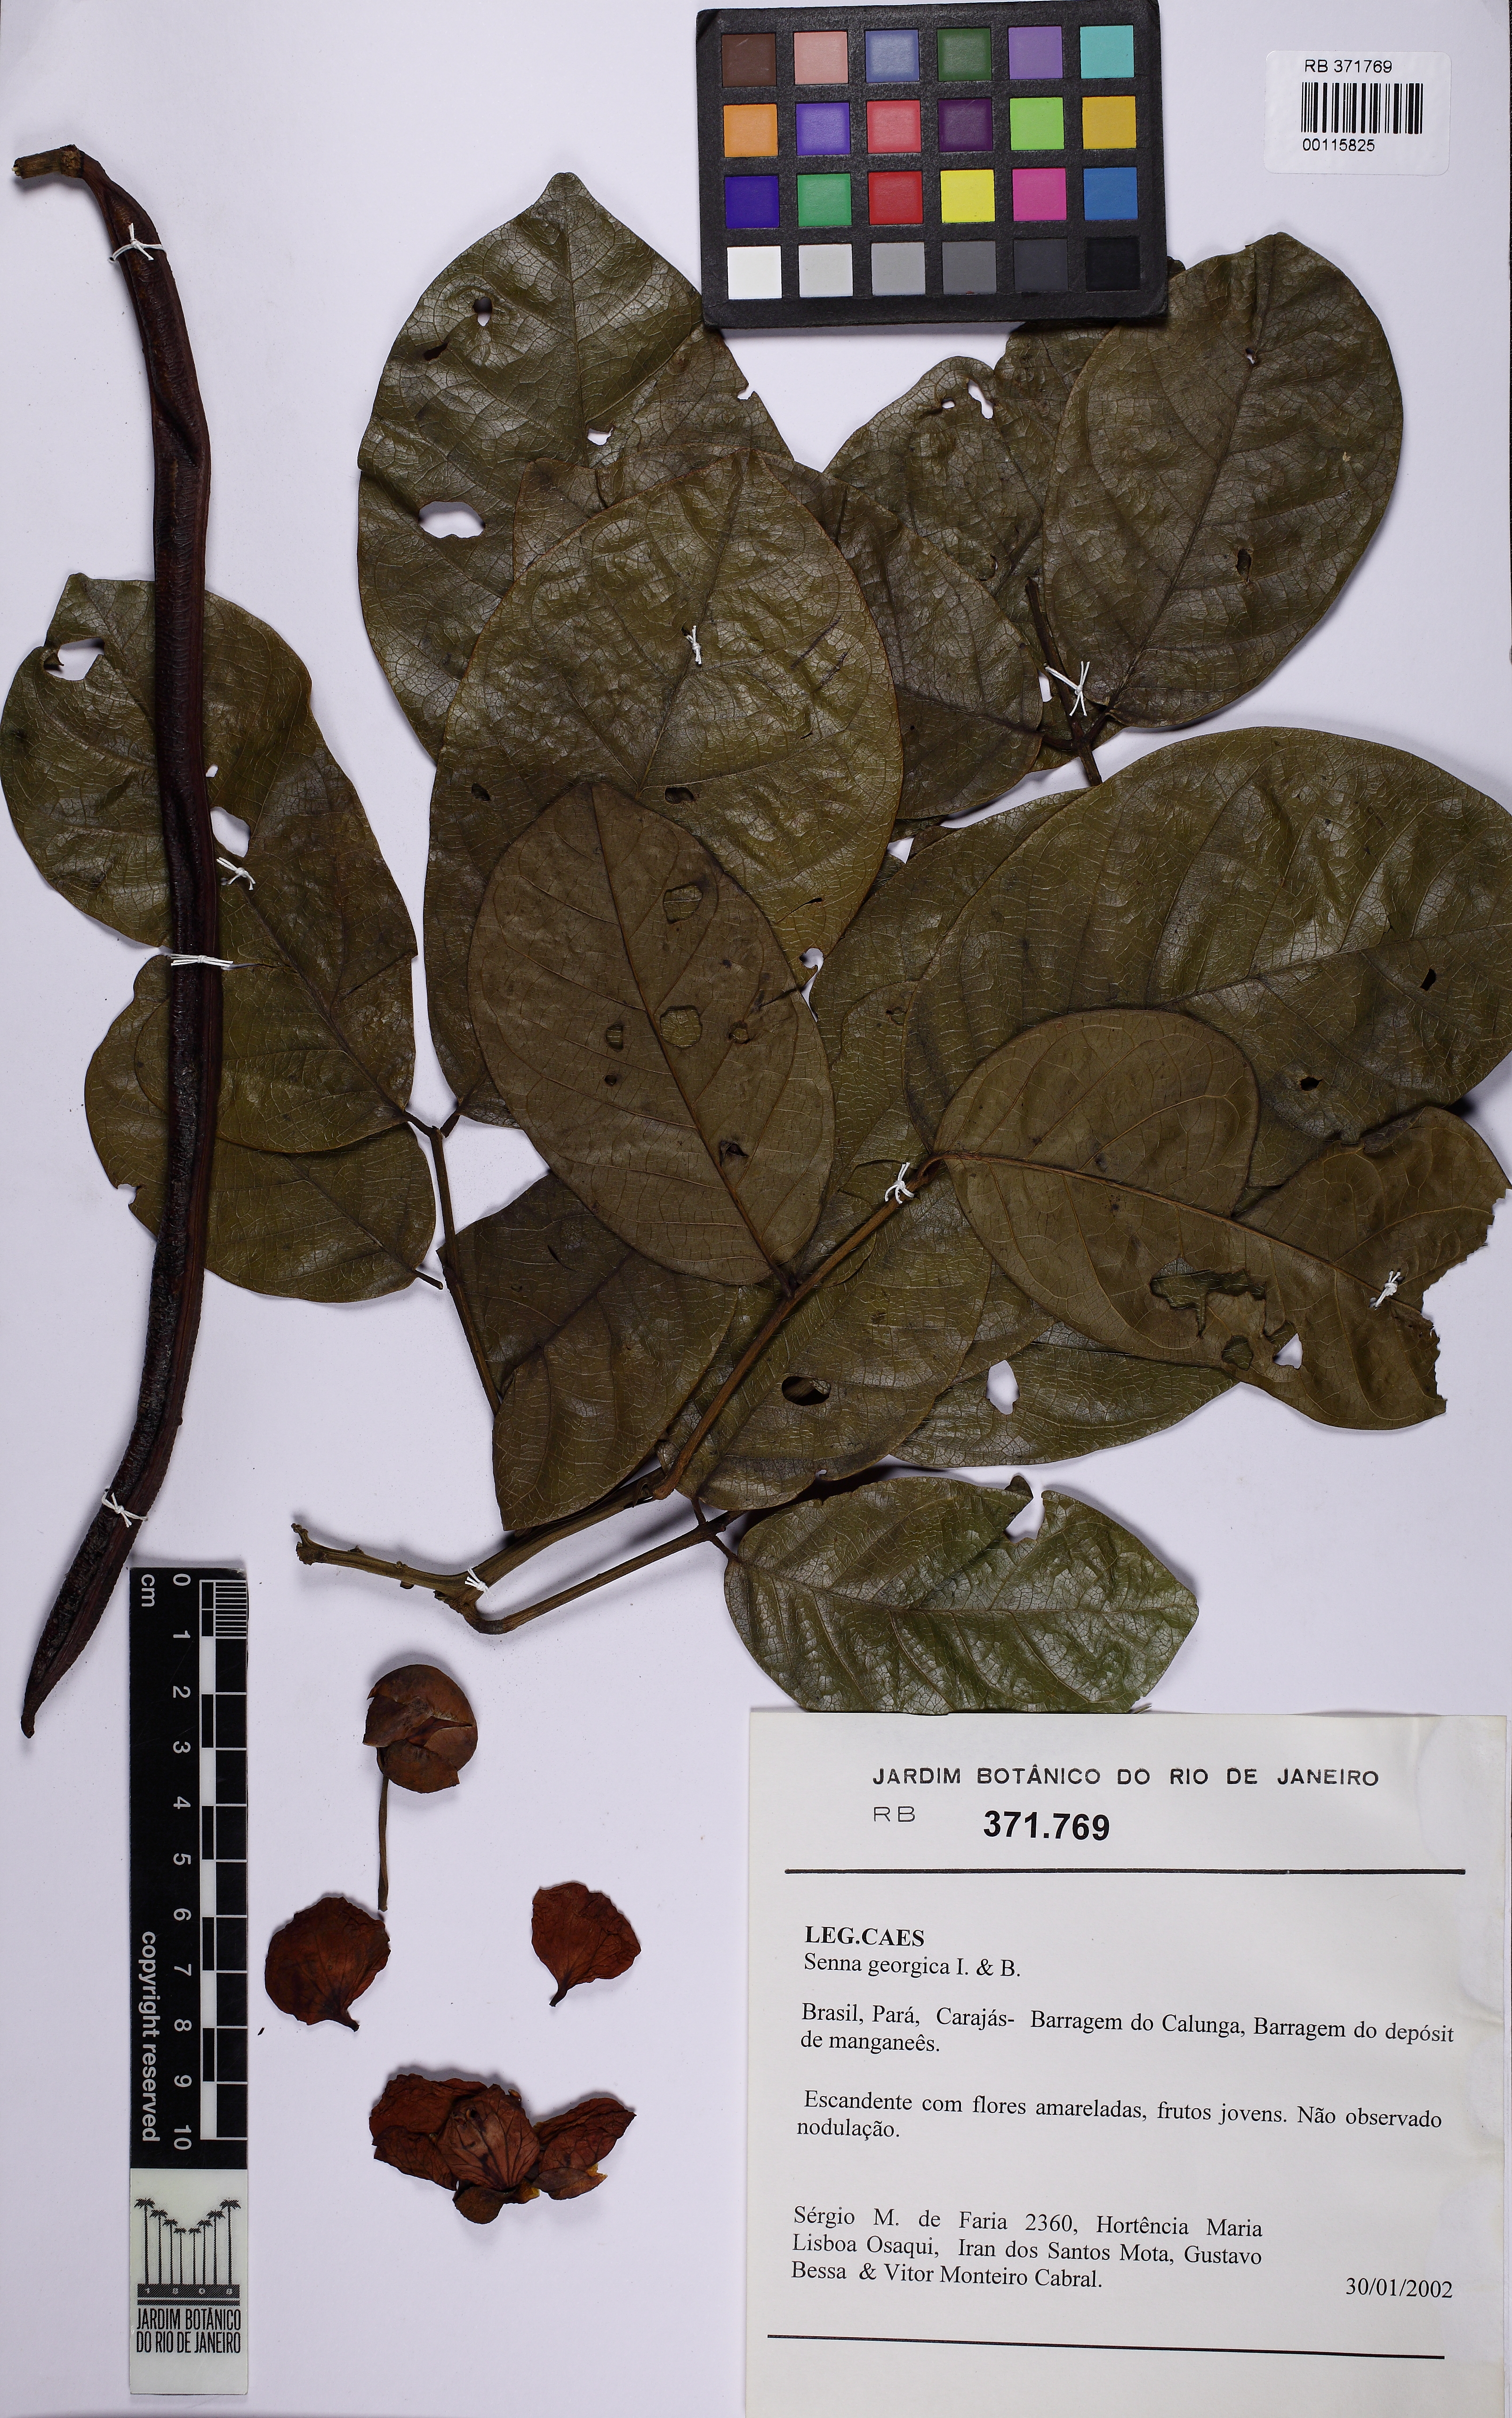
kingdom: Plantae
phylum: Tracheophyta
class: Magnoliopsida
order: Fabales
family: Fabaceae
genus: Senna
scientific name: Senna latifolia
